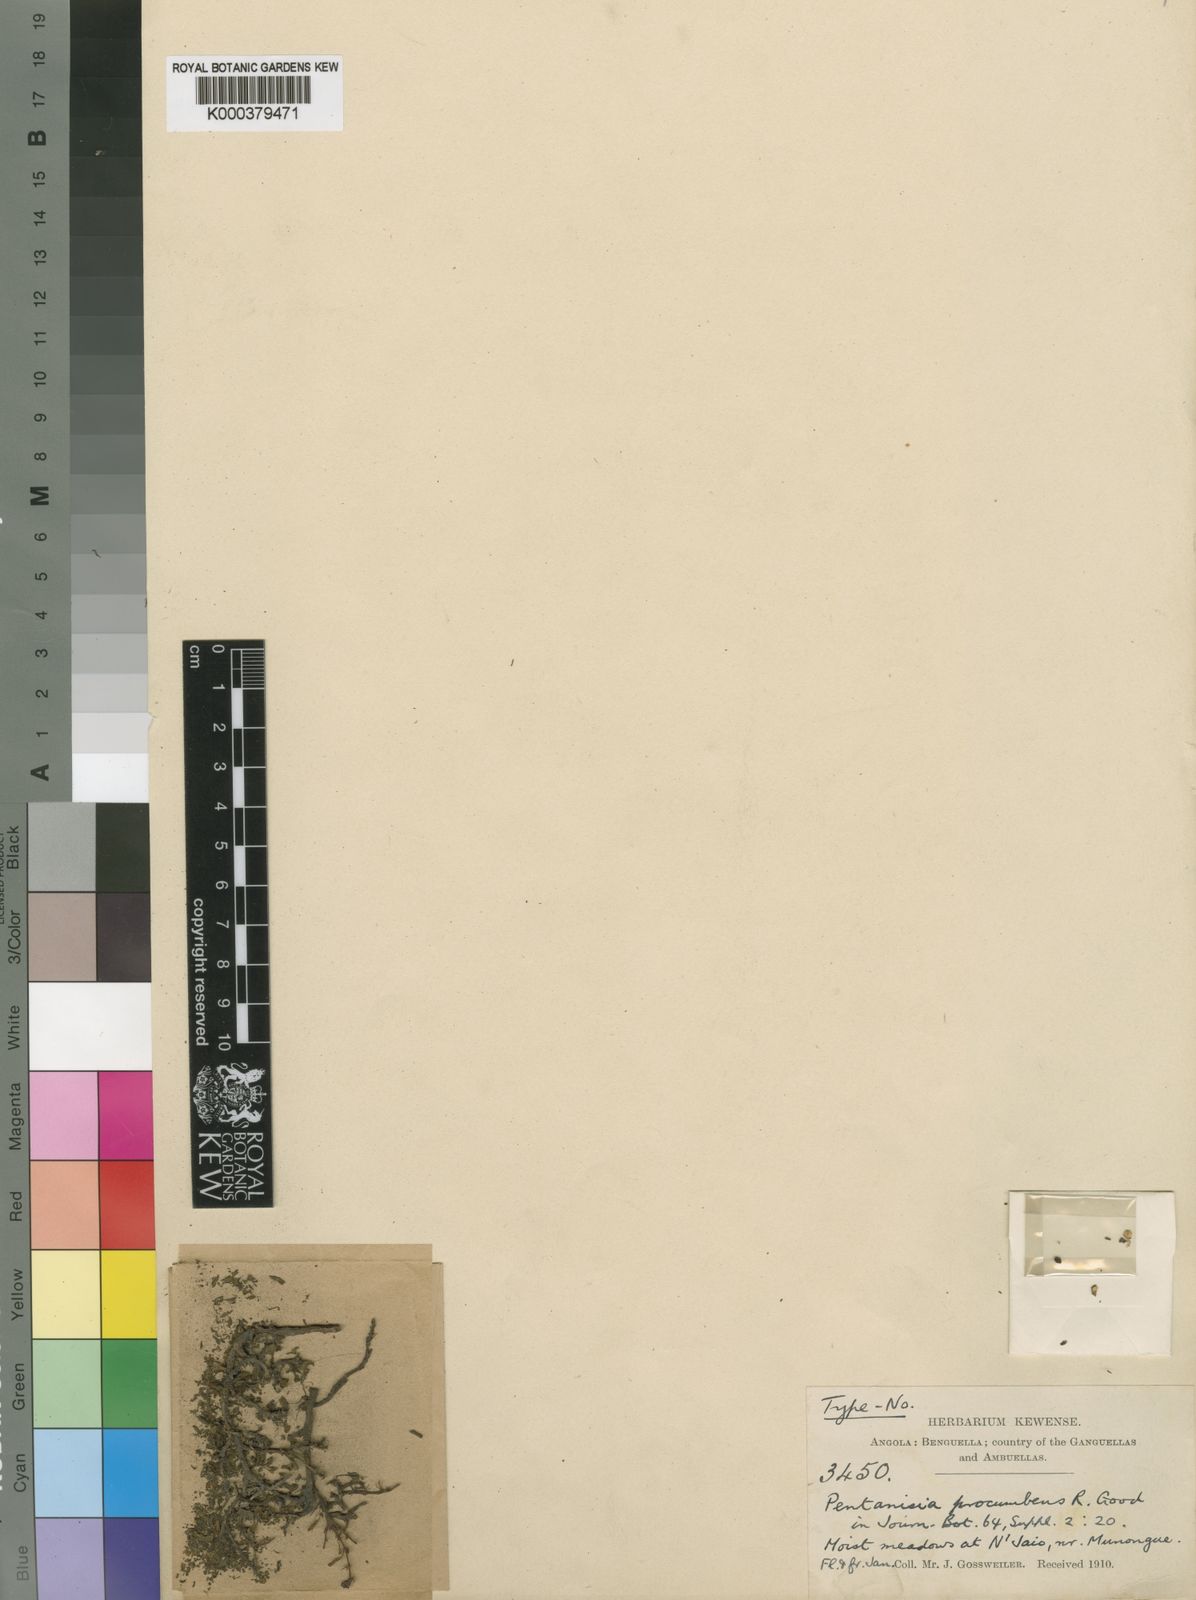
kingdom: Plantae
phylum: Tracheophyta
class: Magnoliopsida
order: Gentianales
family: Rubiaceae
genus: Pentanisia
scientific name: Pentanisia procumbens
